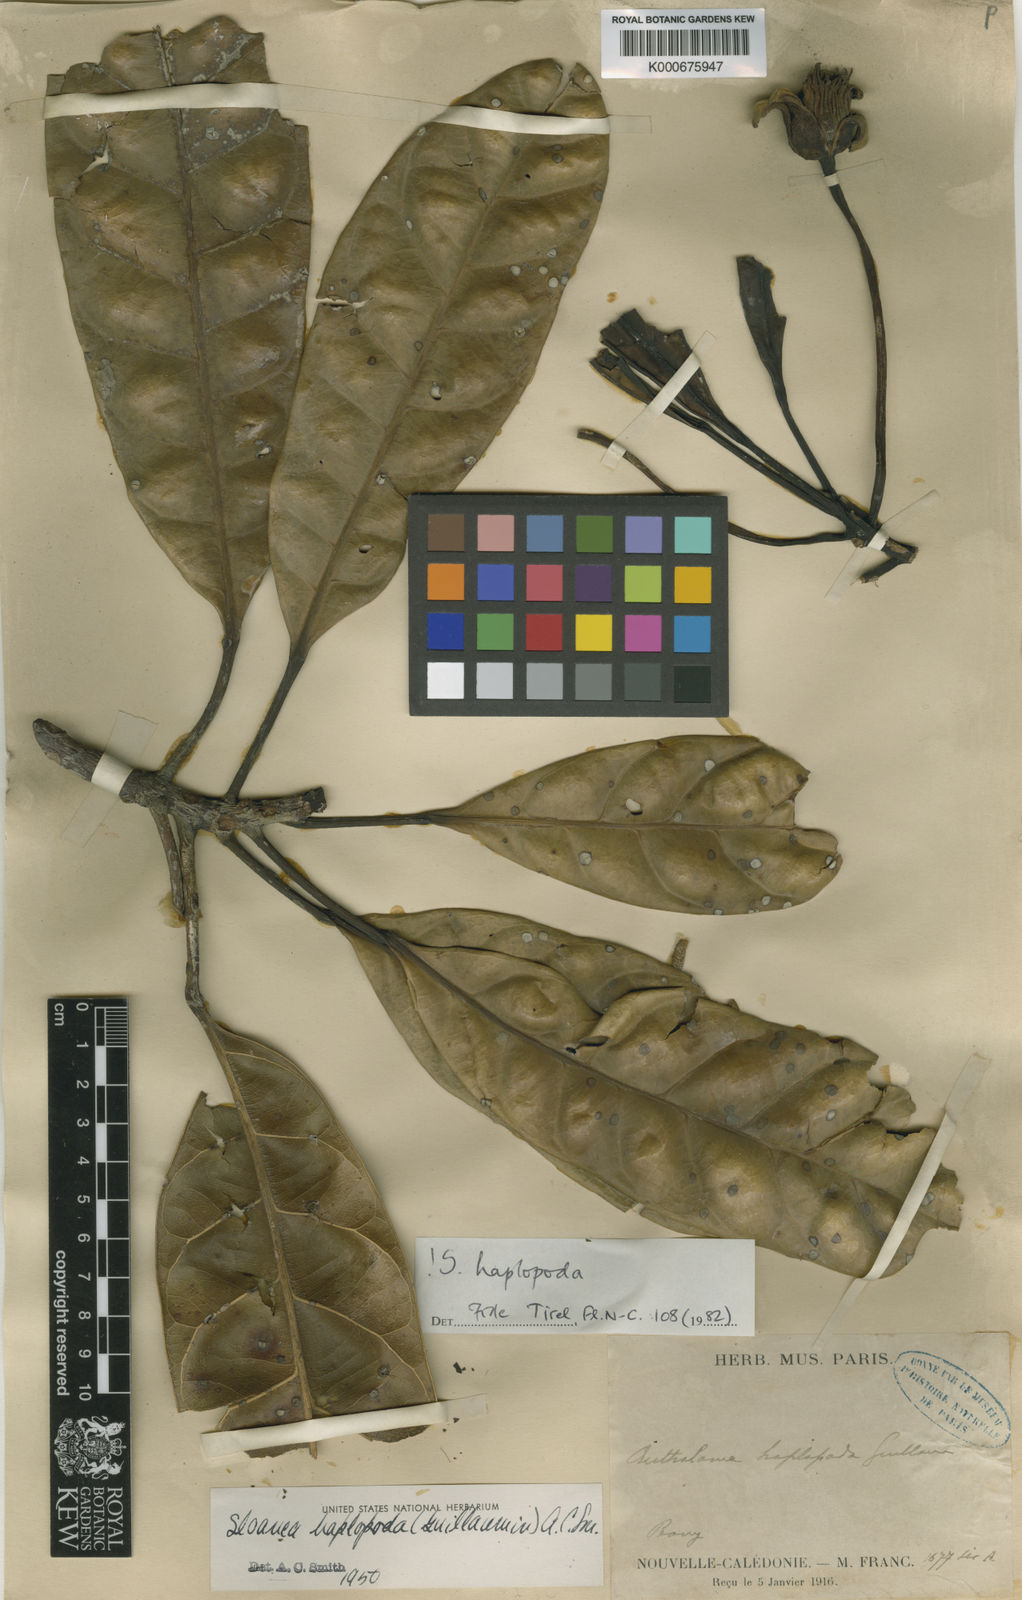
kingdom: Plantae
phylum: Tracheophyta
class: Magnoliopsida
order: Oxalidales
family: Elaeocarpaceae
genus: Sloanea
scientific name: Sloanea haplopoda
